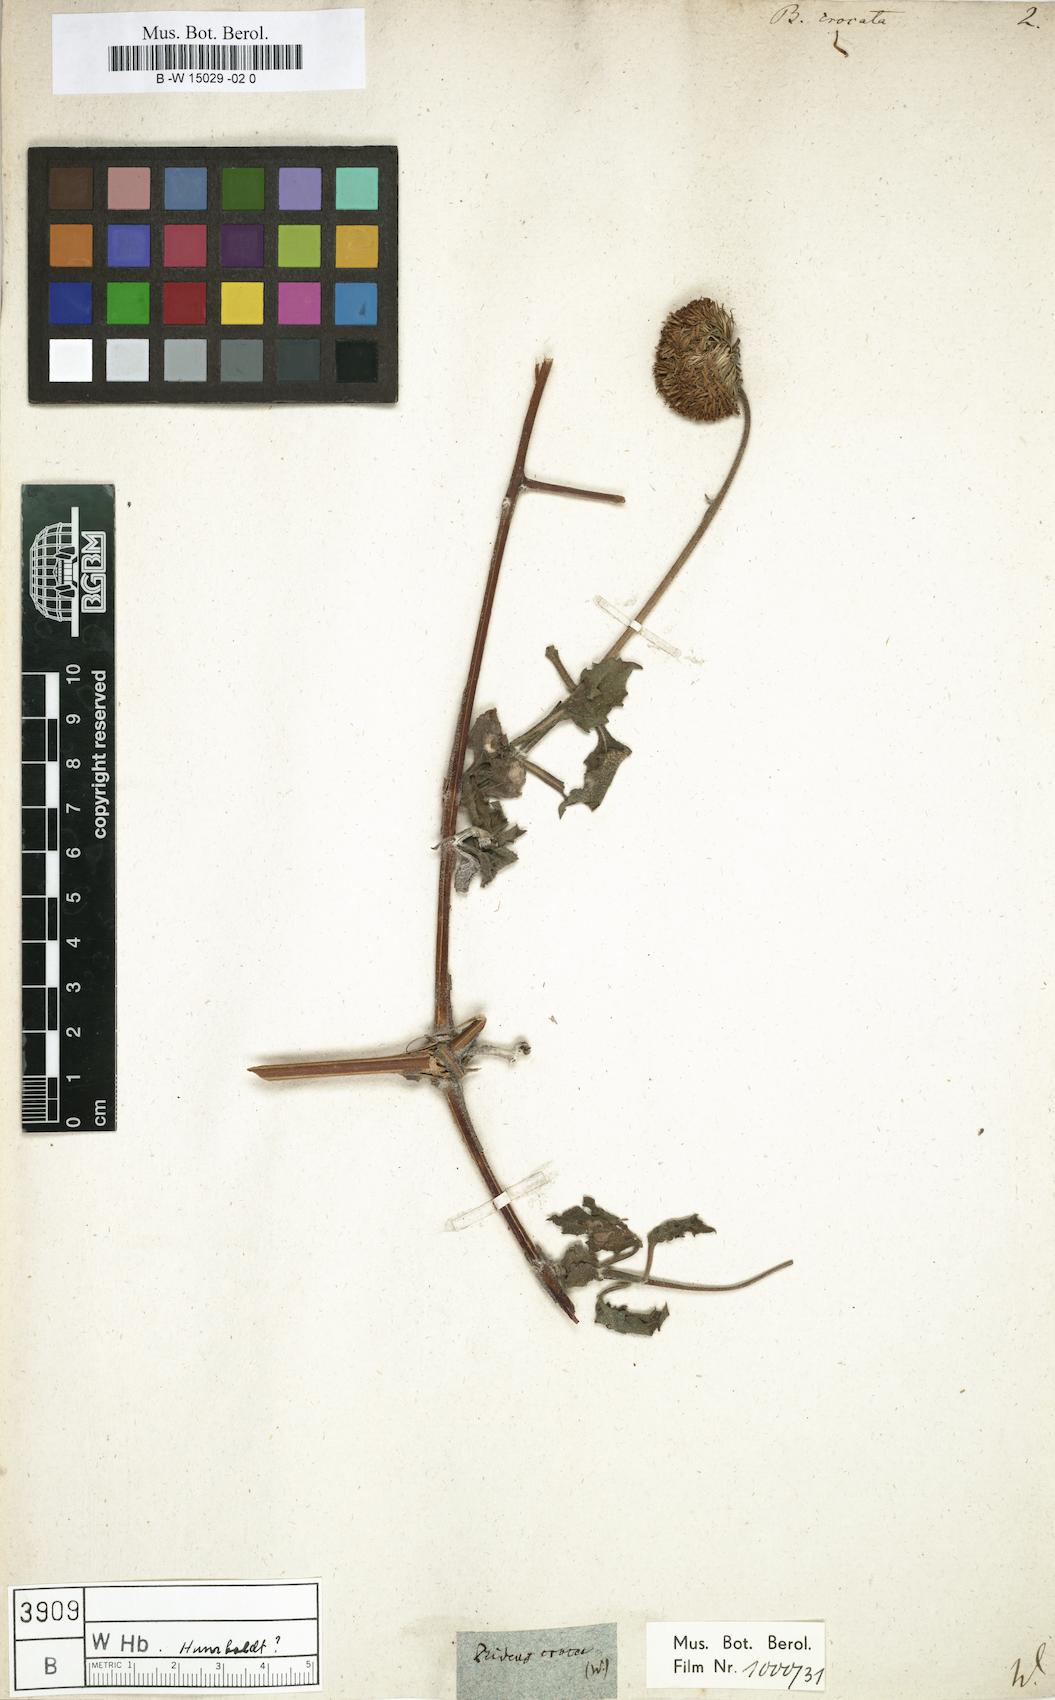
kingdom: Plantae
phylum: Tracheophyta
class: Magnoliopsida
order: Asterales
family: Asteraceae
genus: Verbesina
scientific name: Verbesina crocata
